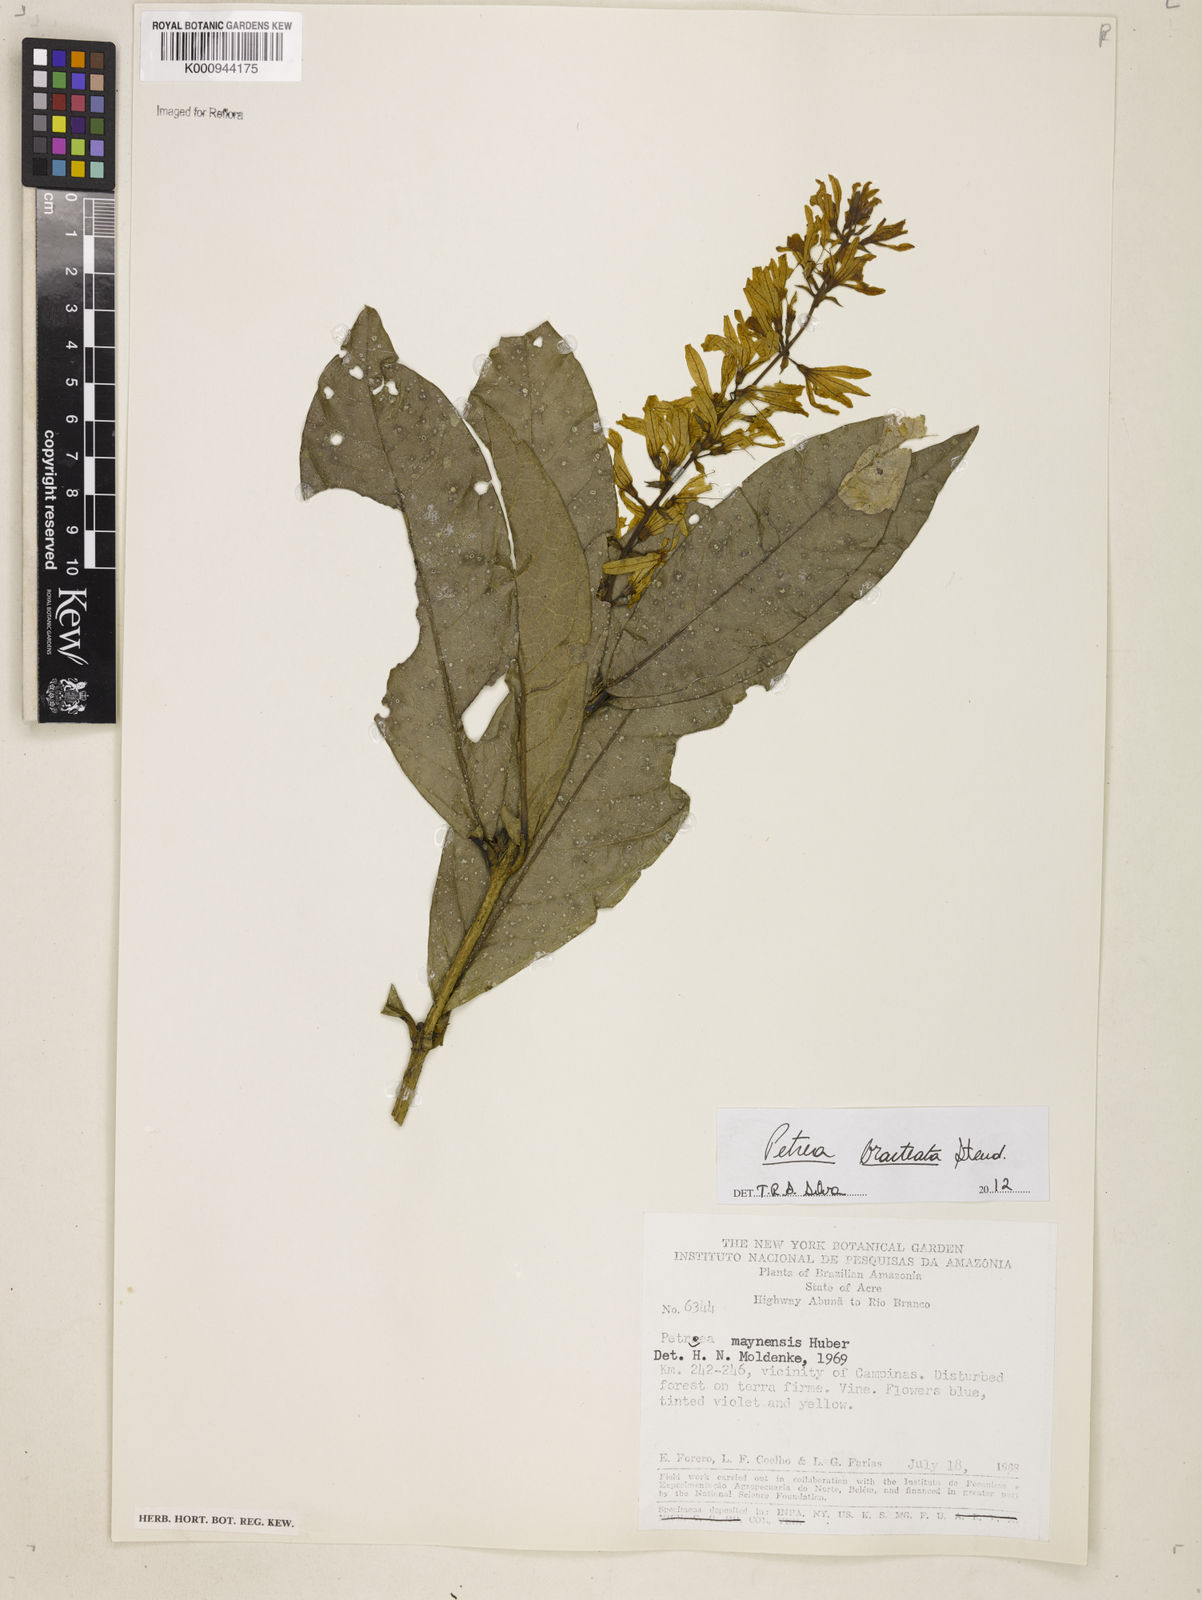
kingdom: Plantae
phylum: Tracheophyta
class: Magnoliopsida
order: Lamiales
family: Verbenaceae
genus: Petrea
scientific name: Petrea bracteata
